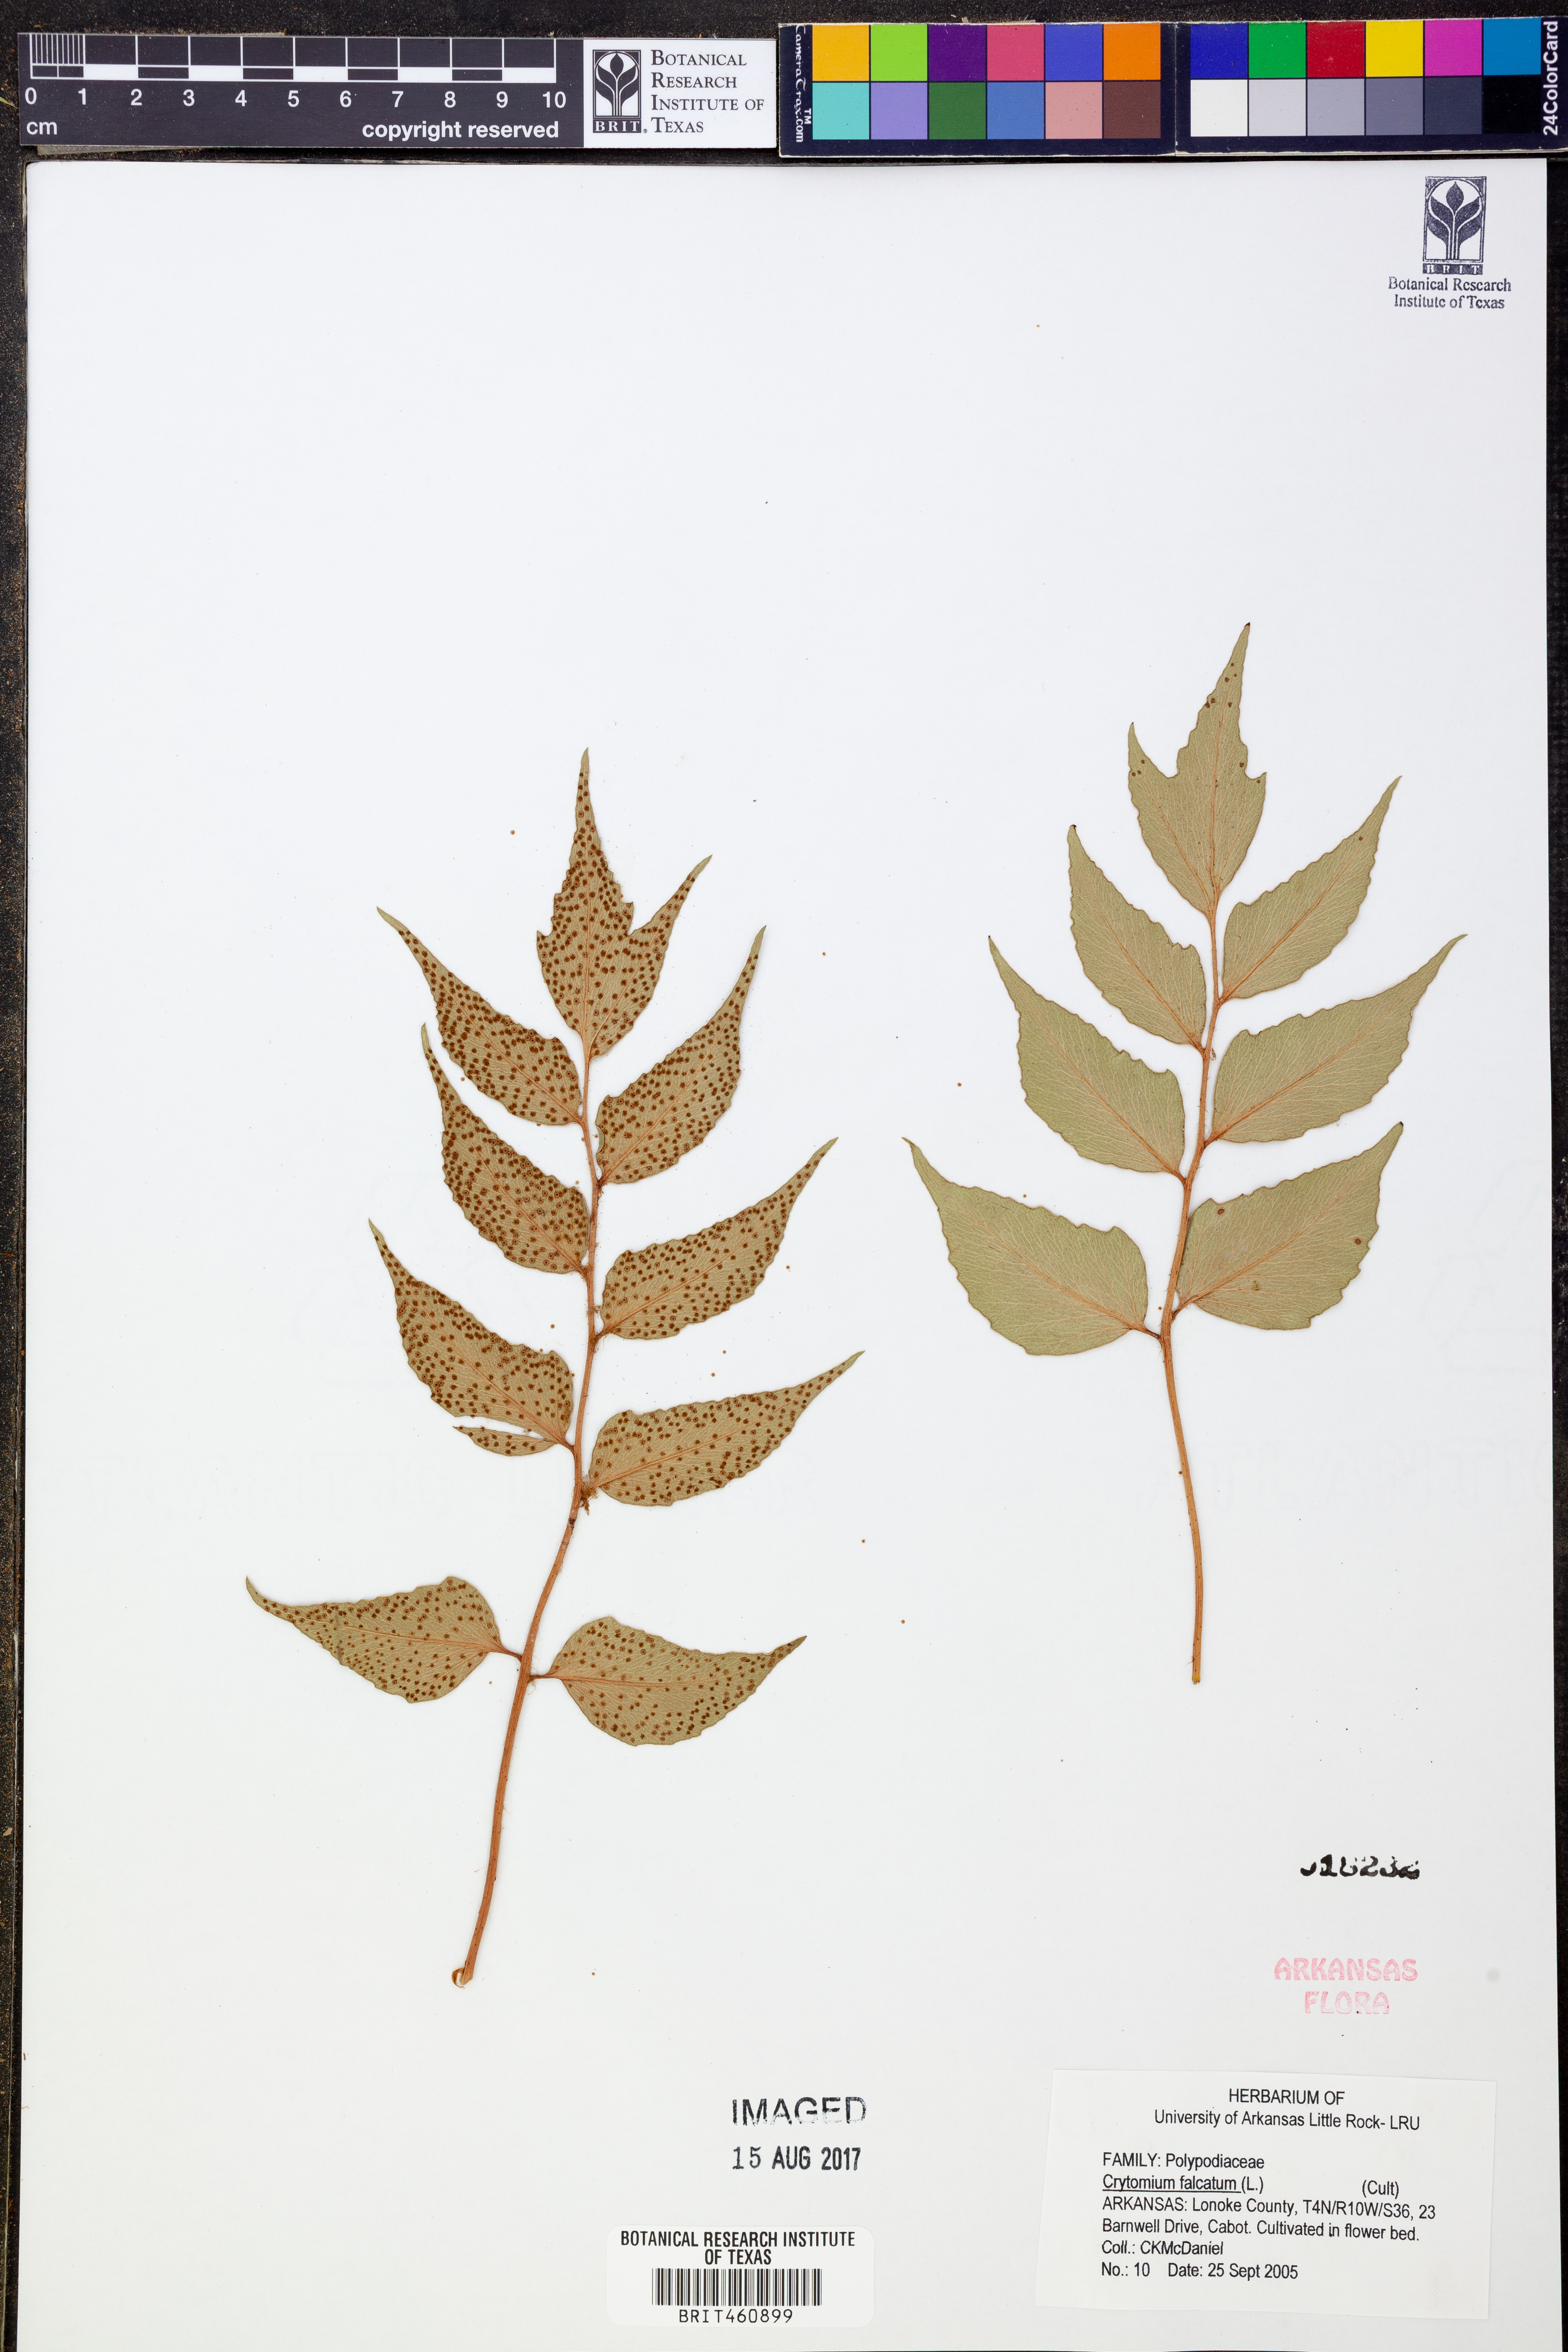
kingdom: Plantae
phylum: Tracheophyta
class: Polypodiopsida
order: Polypodiales
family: Dryopteridaceae
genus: Cyrtomium
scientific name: Cyrtomium falcatum
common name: House holly-fern
